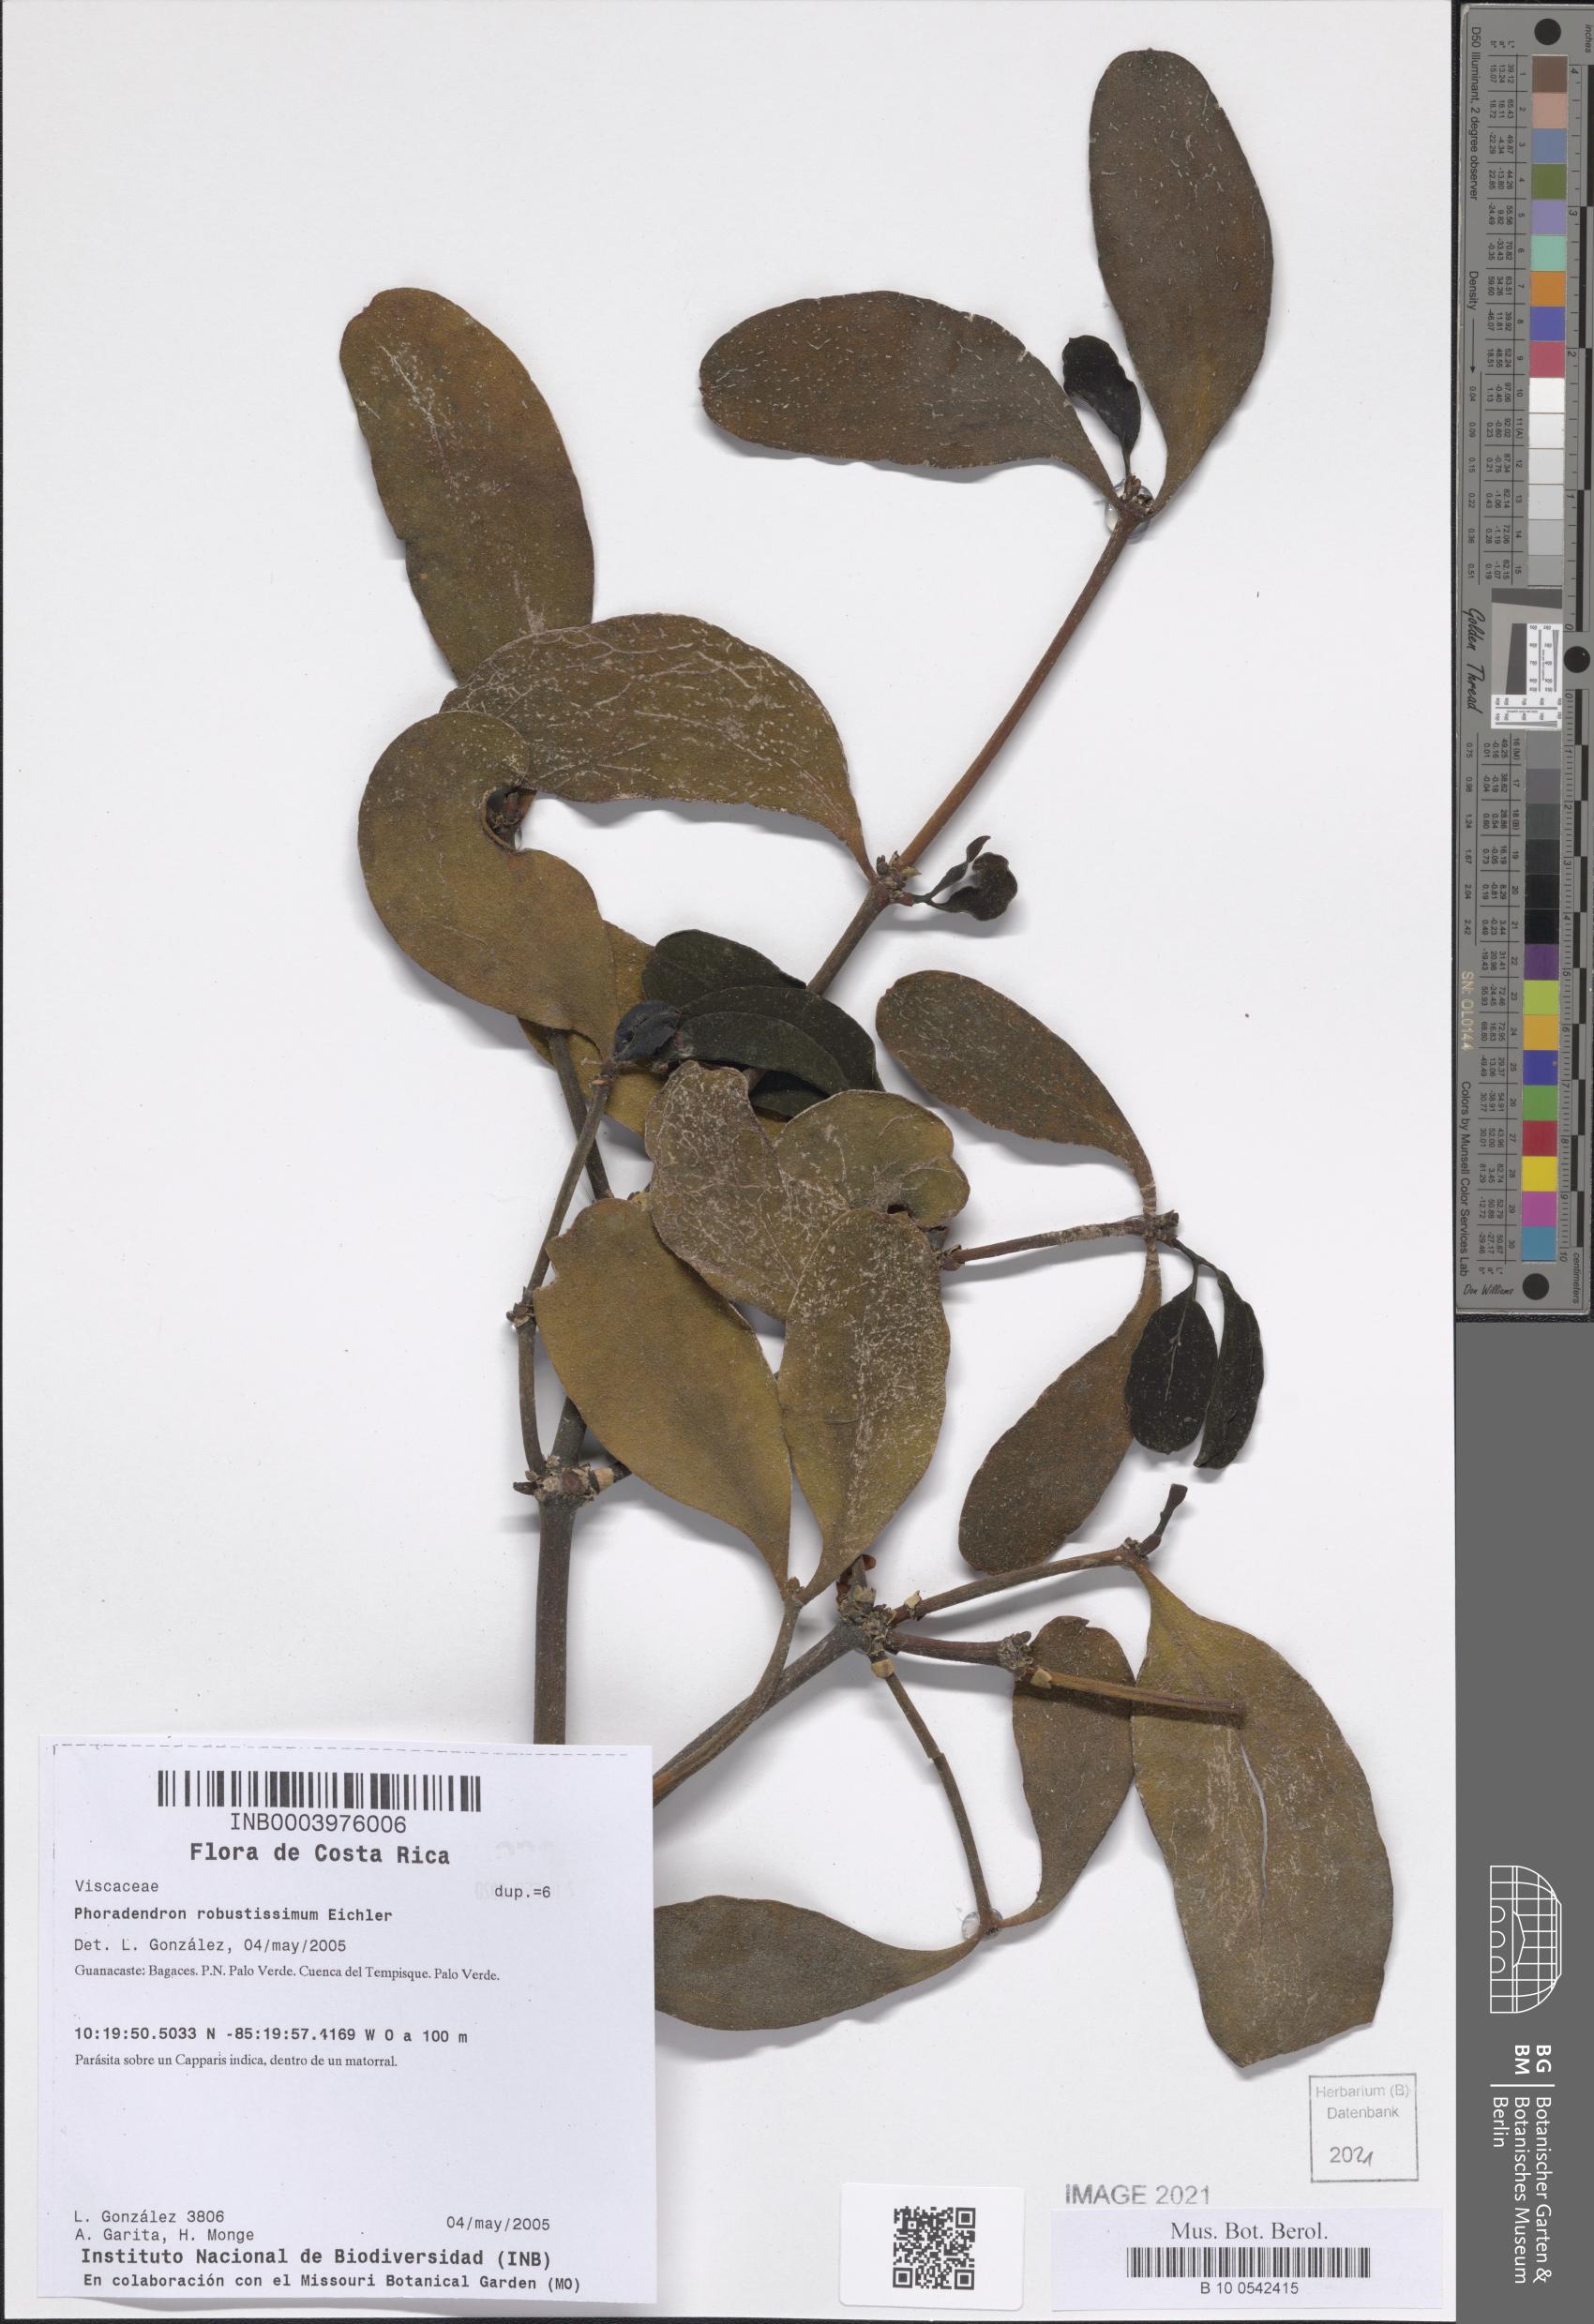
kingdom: Plantae
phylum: Tracheophyta
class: Magnoliopsida
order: Santalales
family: Viscaceae
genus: Phoradendron
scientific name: Phoradendron robustissimum
